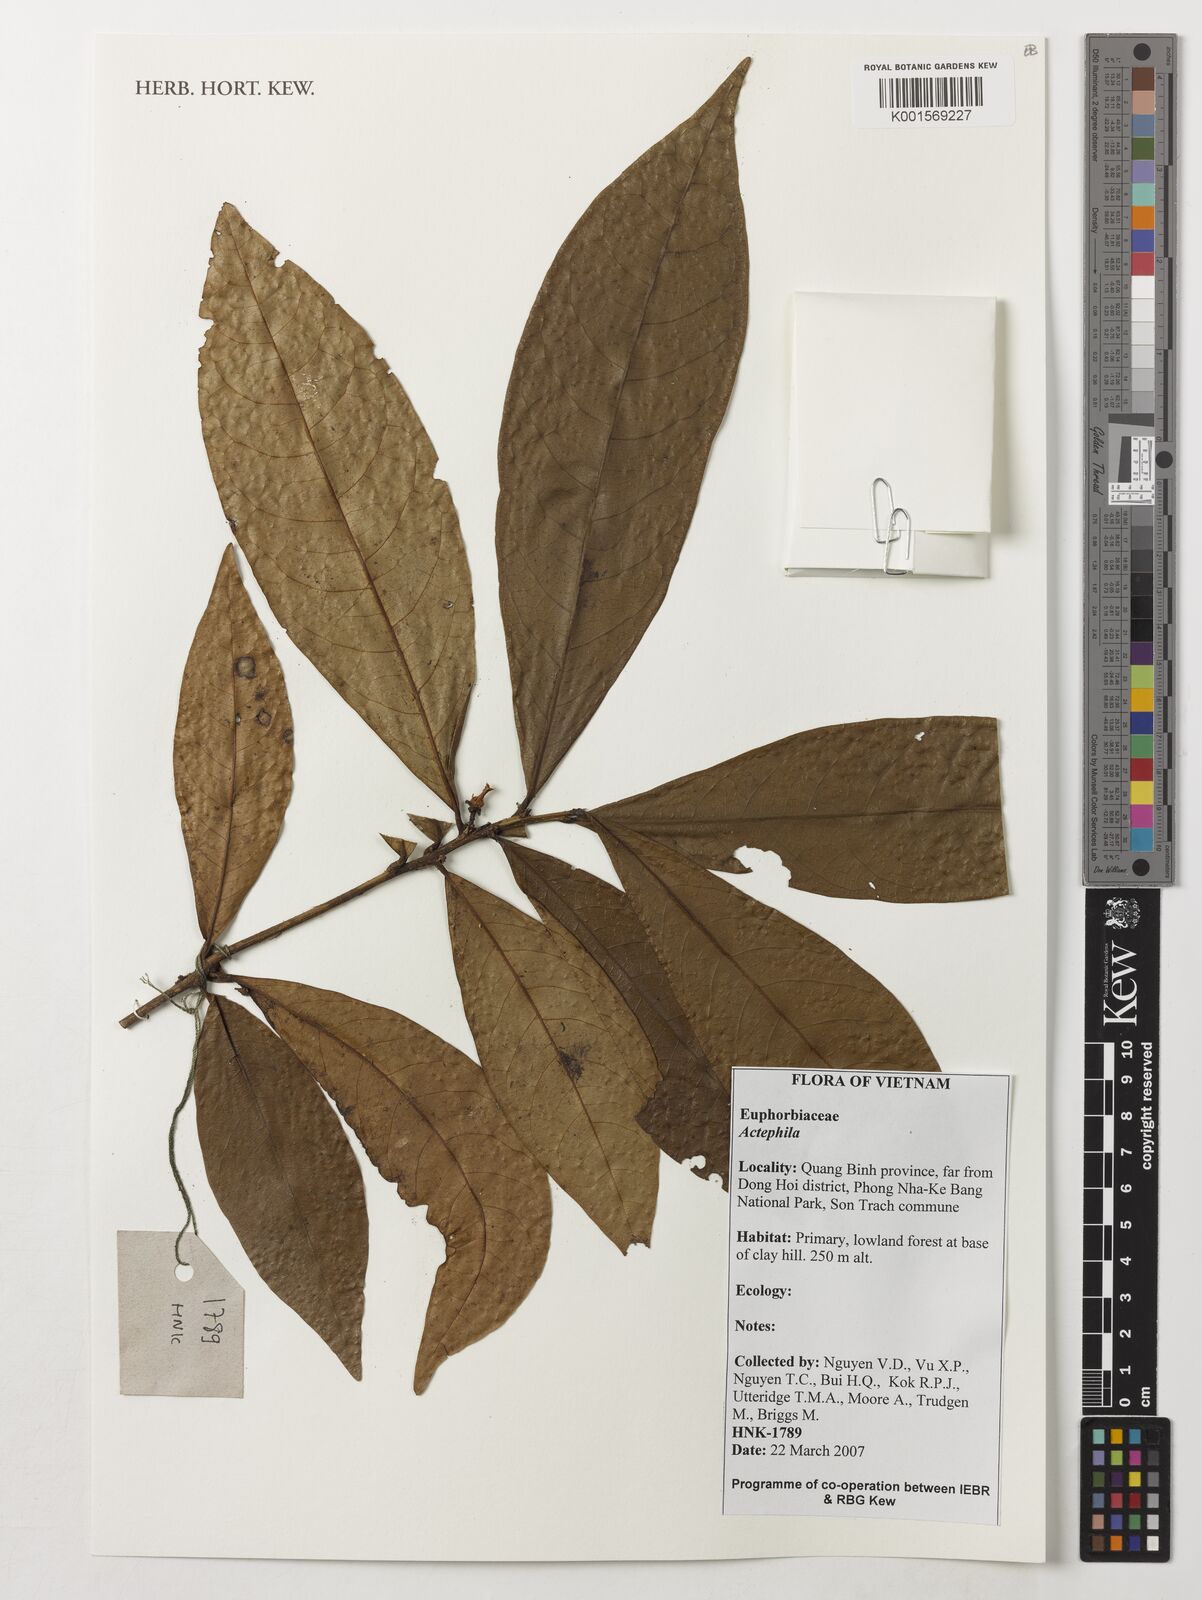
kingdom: Plantae
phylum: Tracheophyta
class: Magnoliopsida
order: Malpighiales
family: Phyllanthaceae
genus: Actephila
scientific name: Actephila
